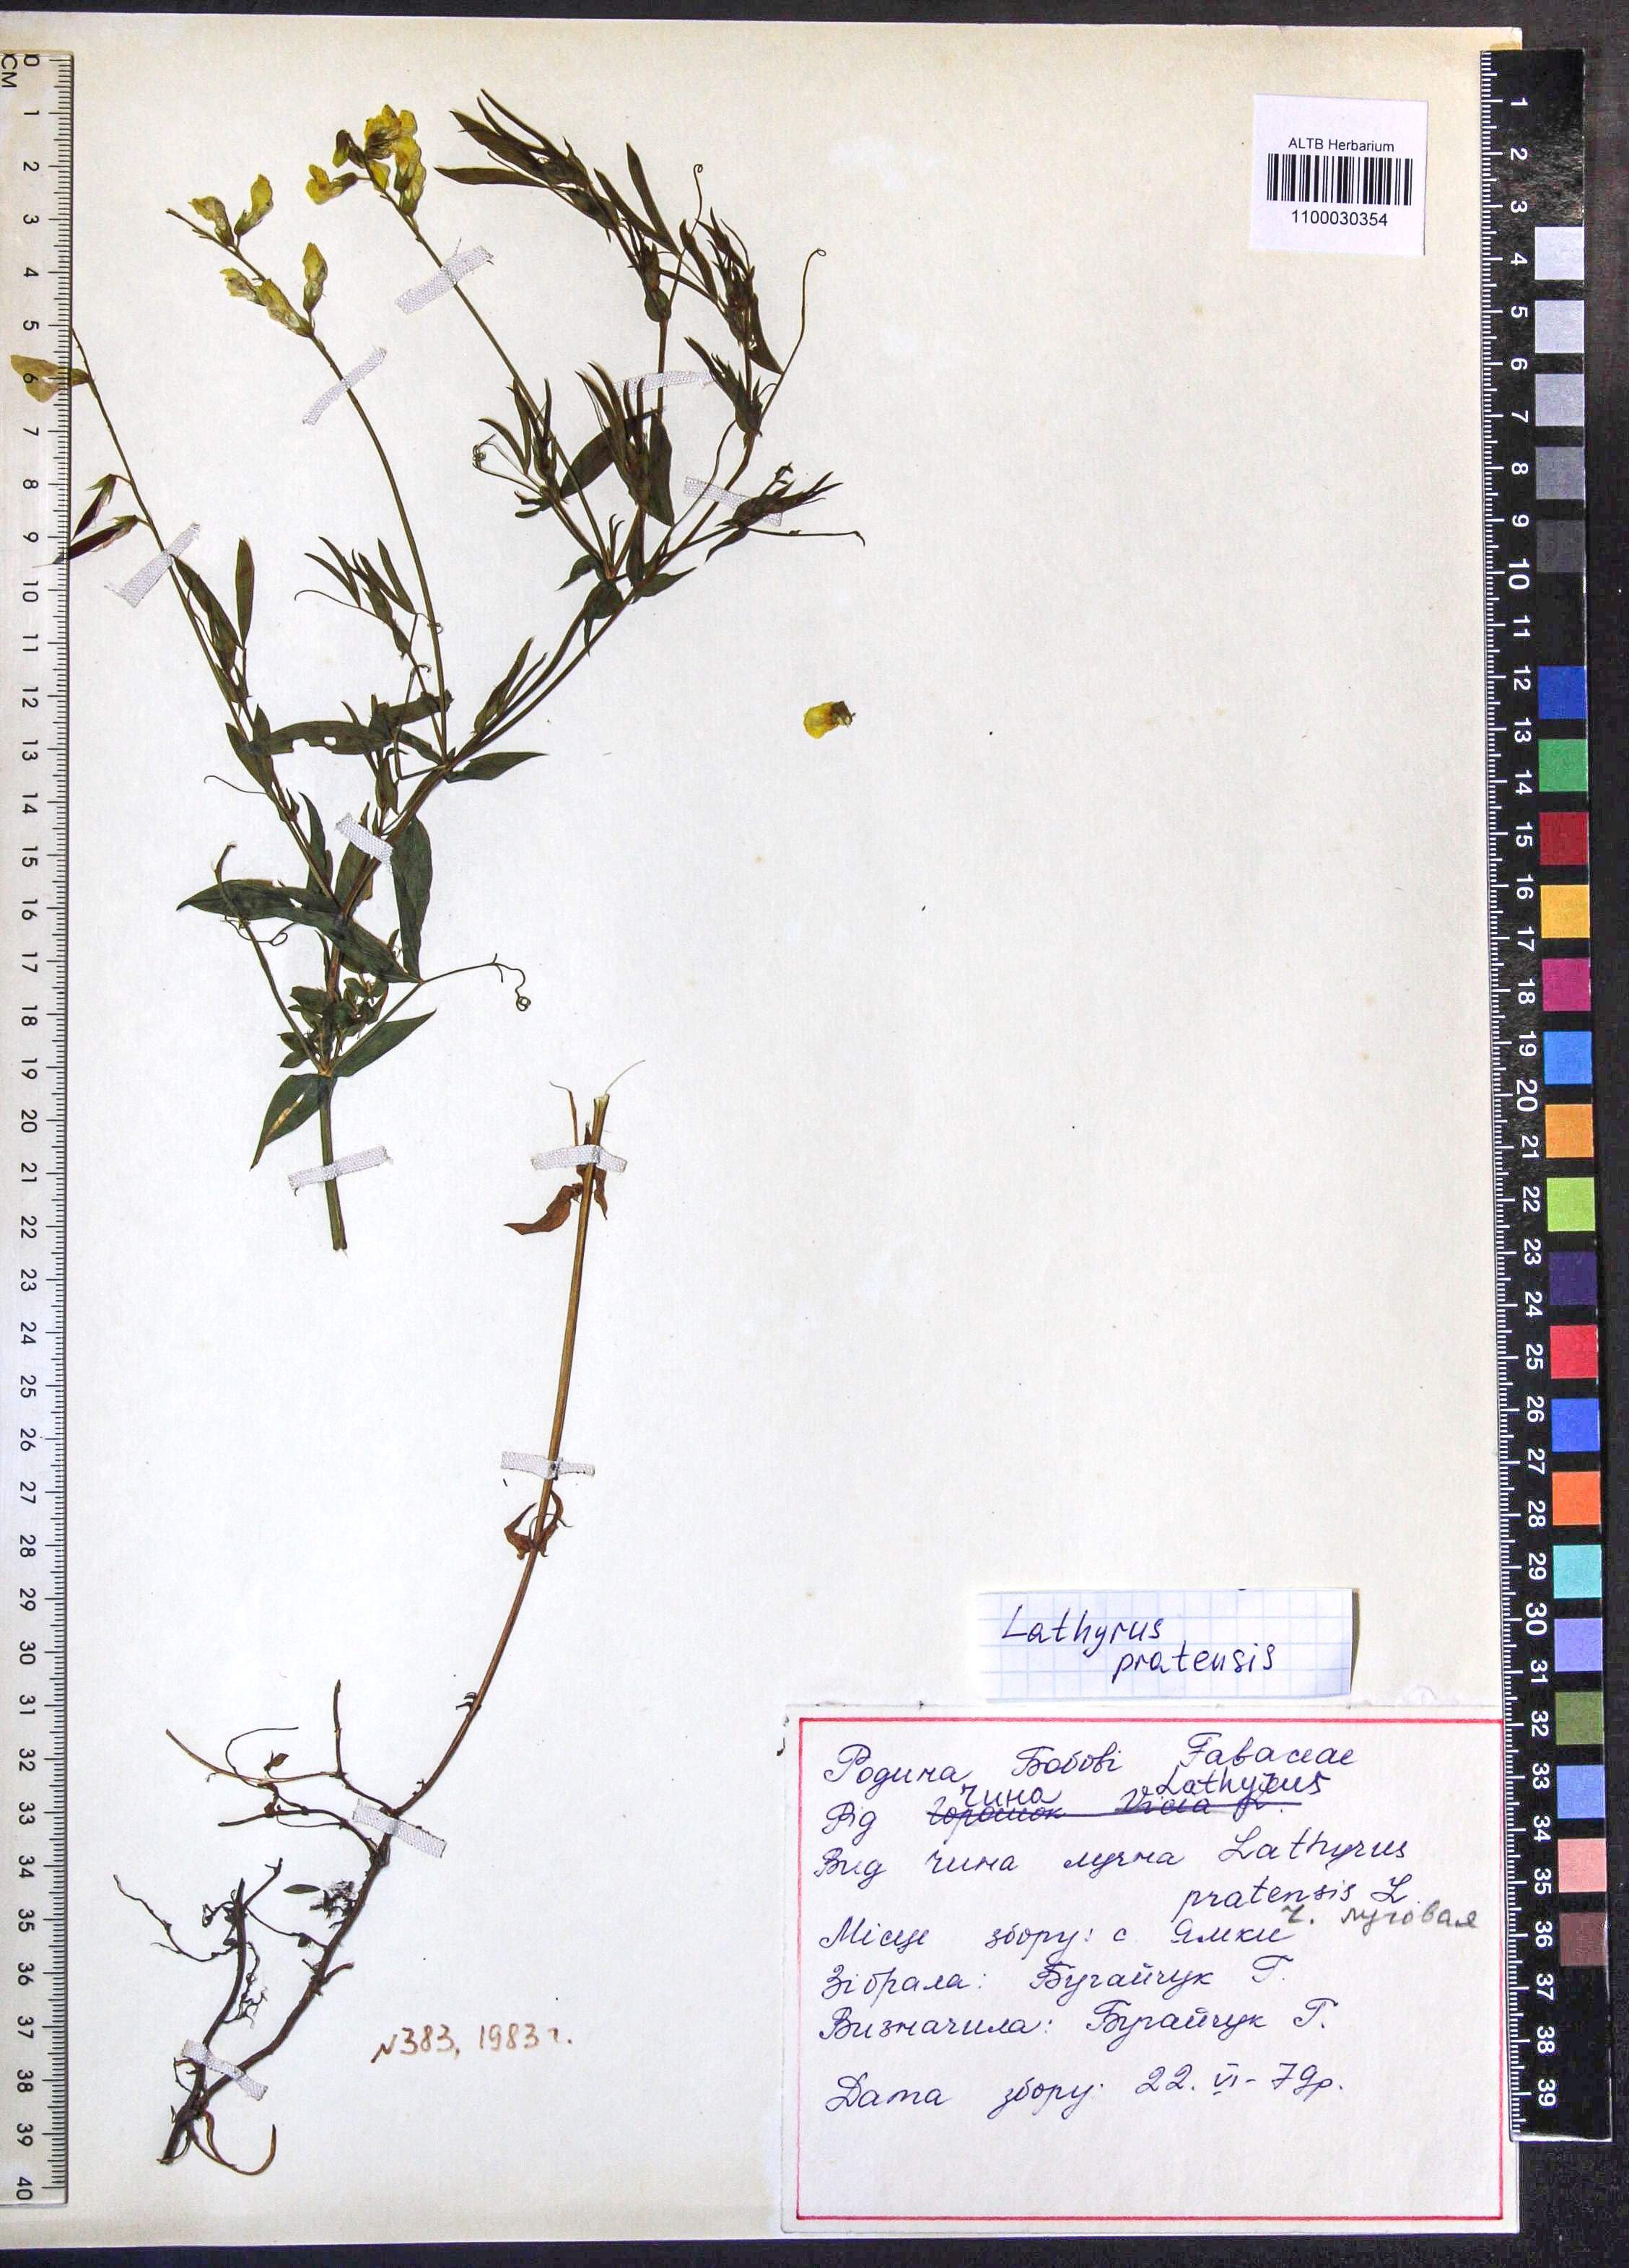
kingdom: Plantae
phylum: Tracheophyta
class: Magnoliopsida
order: Fabales
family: Fabaceae
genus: Lathyrus
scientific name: Lathyrus pratensis
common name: Meadow vetchling
